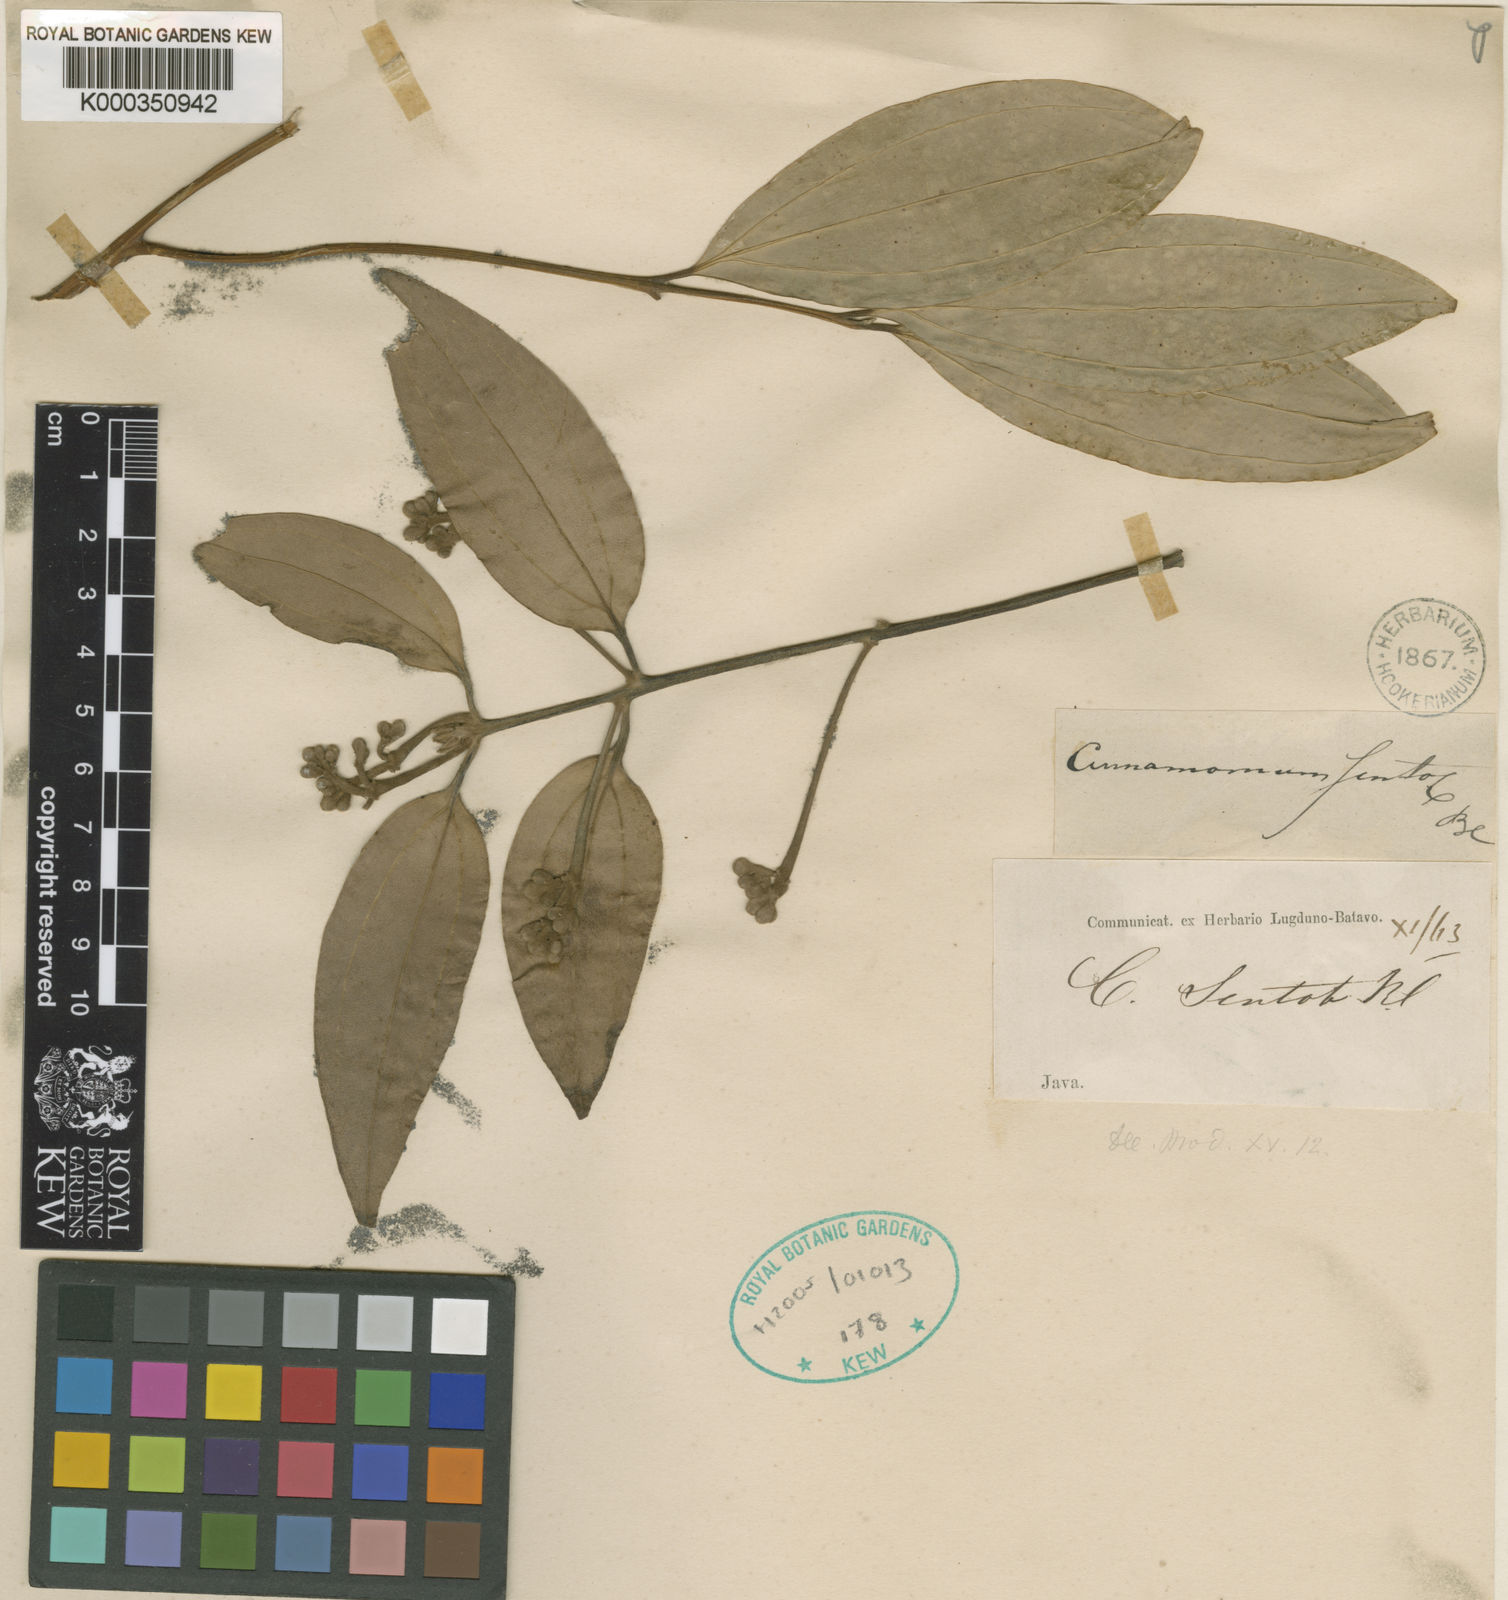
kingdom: Plantae
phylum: Tracheophyta
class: Magnoliopsida
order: Laurales
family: Lauraceae
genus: Cinnamomum
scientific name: Cinnamomum
